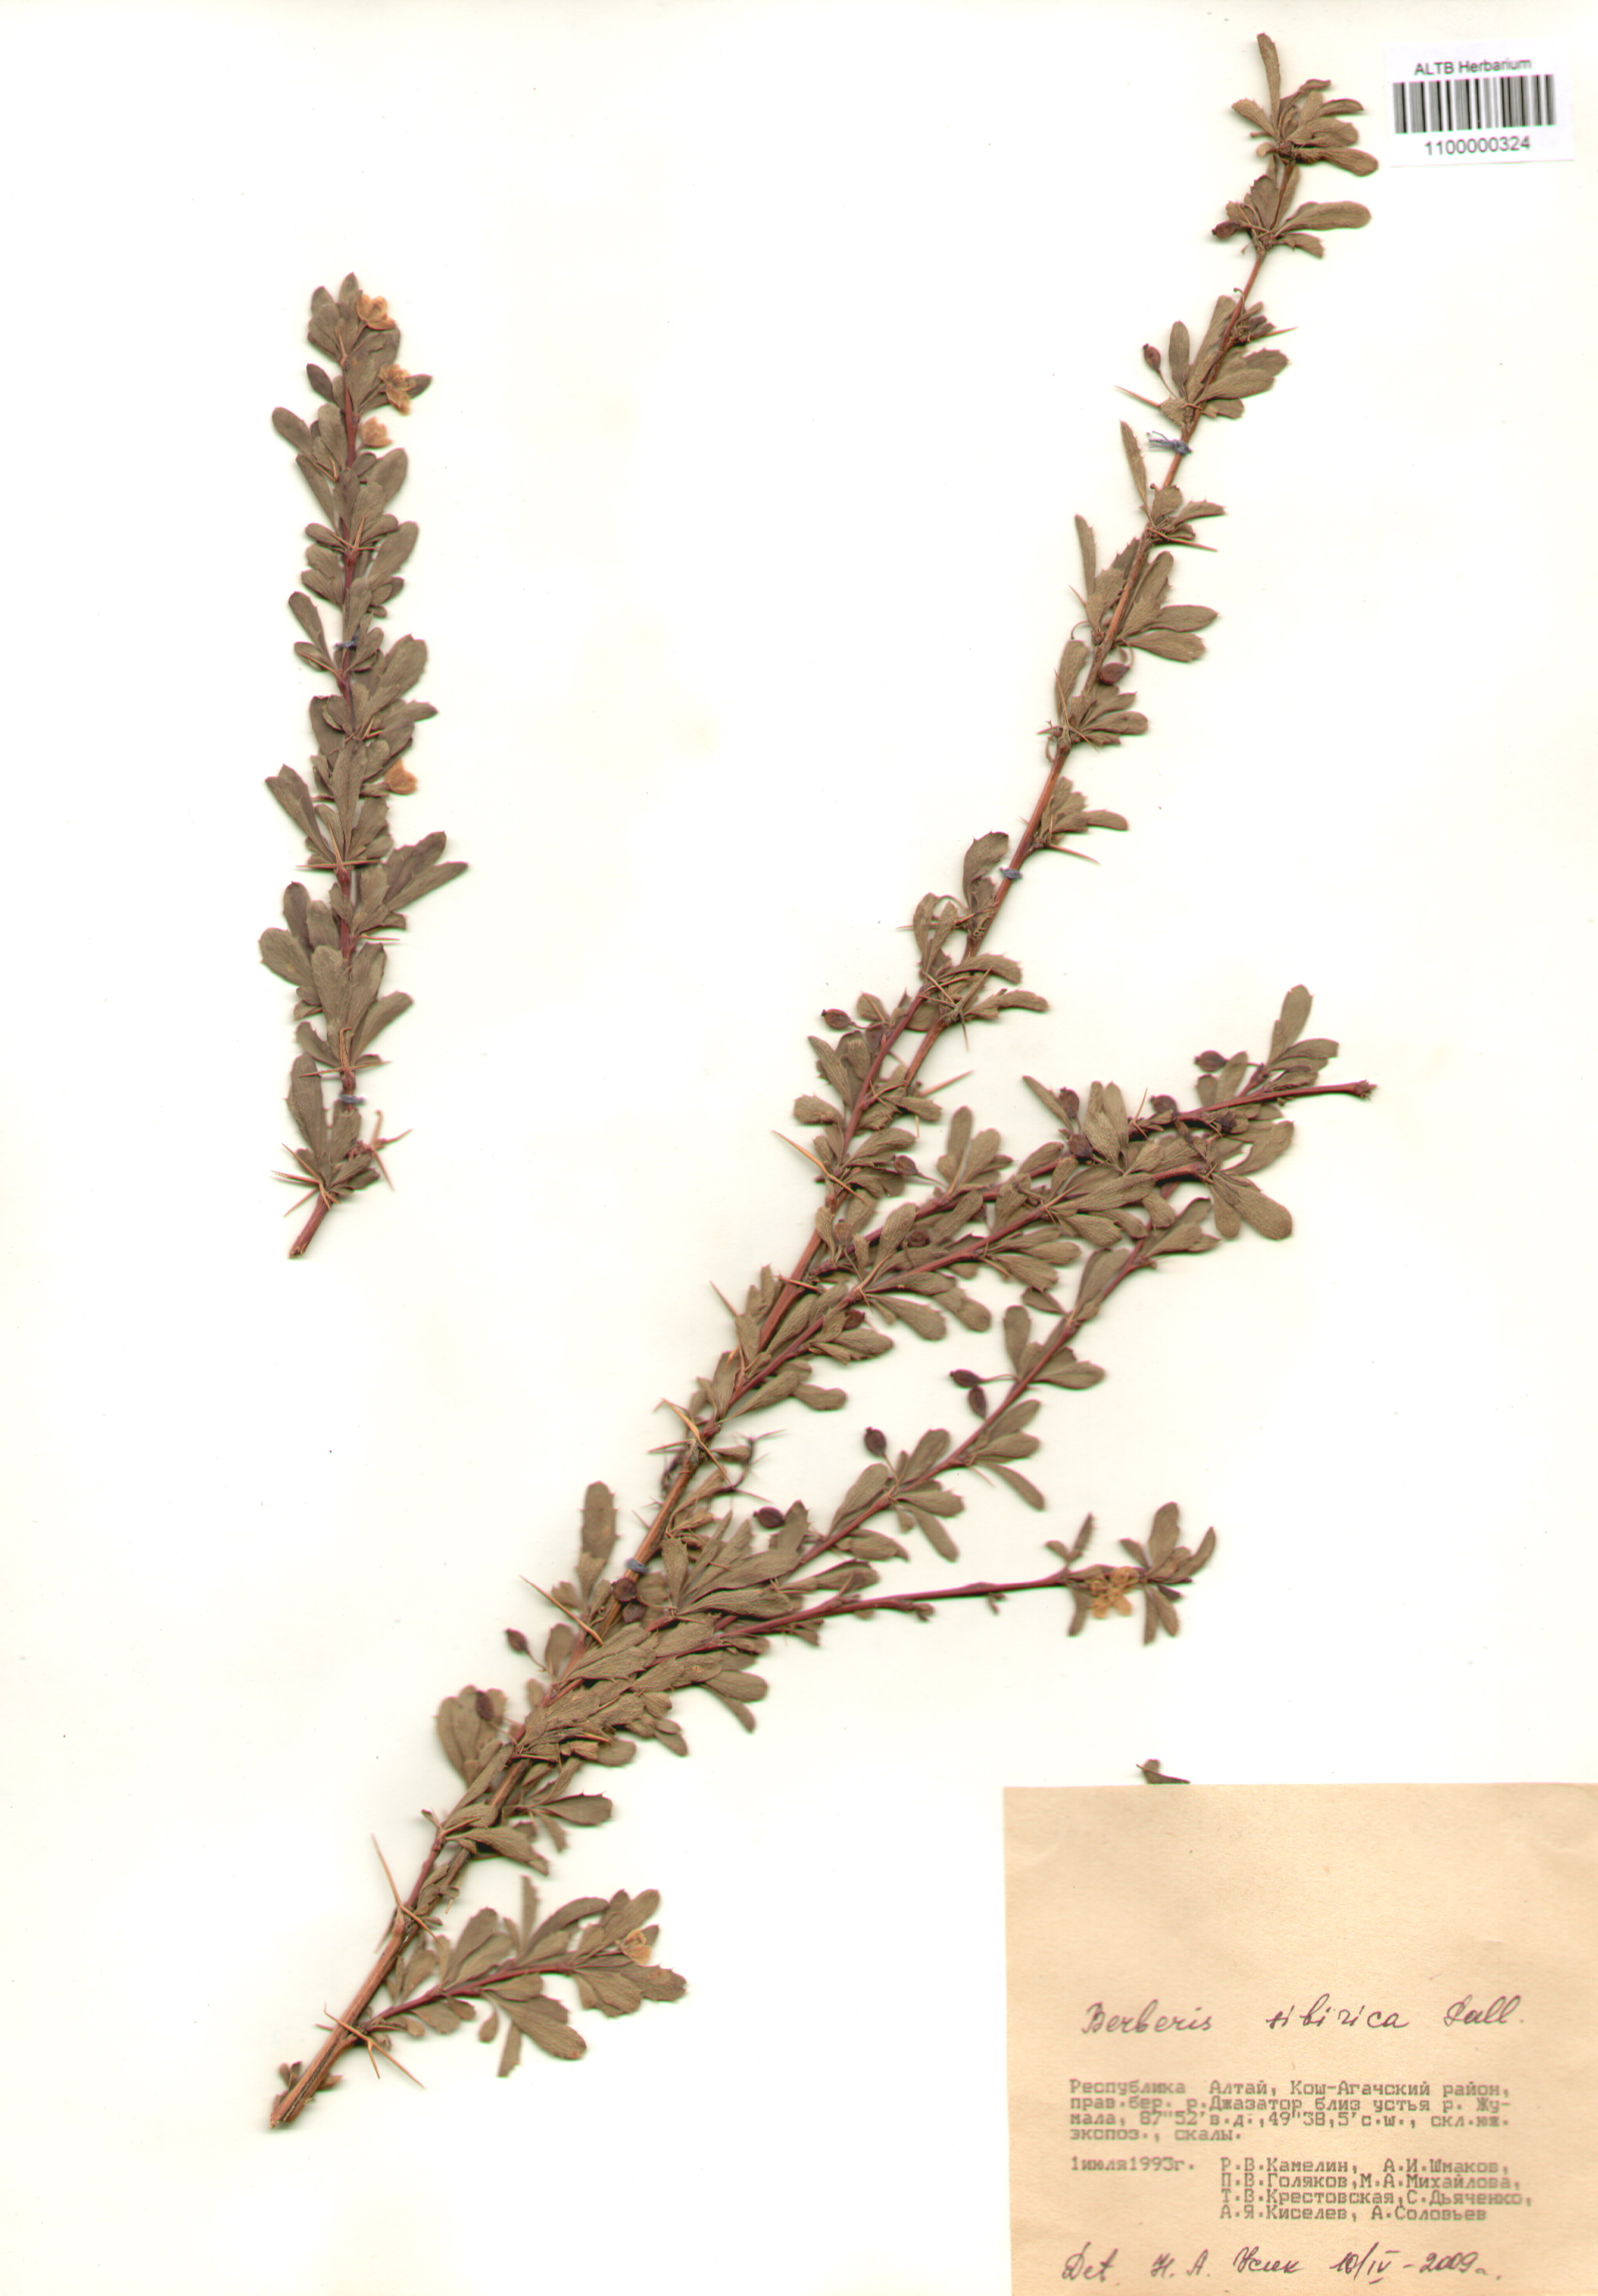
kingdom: Plantae
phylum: Tracheophyta
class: Magnoliopsida
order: Ranunculales
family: Berberidaceae
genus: Berberis
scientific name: Berberis sibirica
